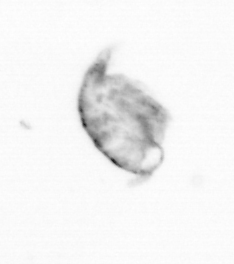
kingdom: Animalia
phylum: Arthropoda
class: Copepoda
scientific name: Copepoda
